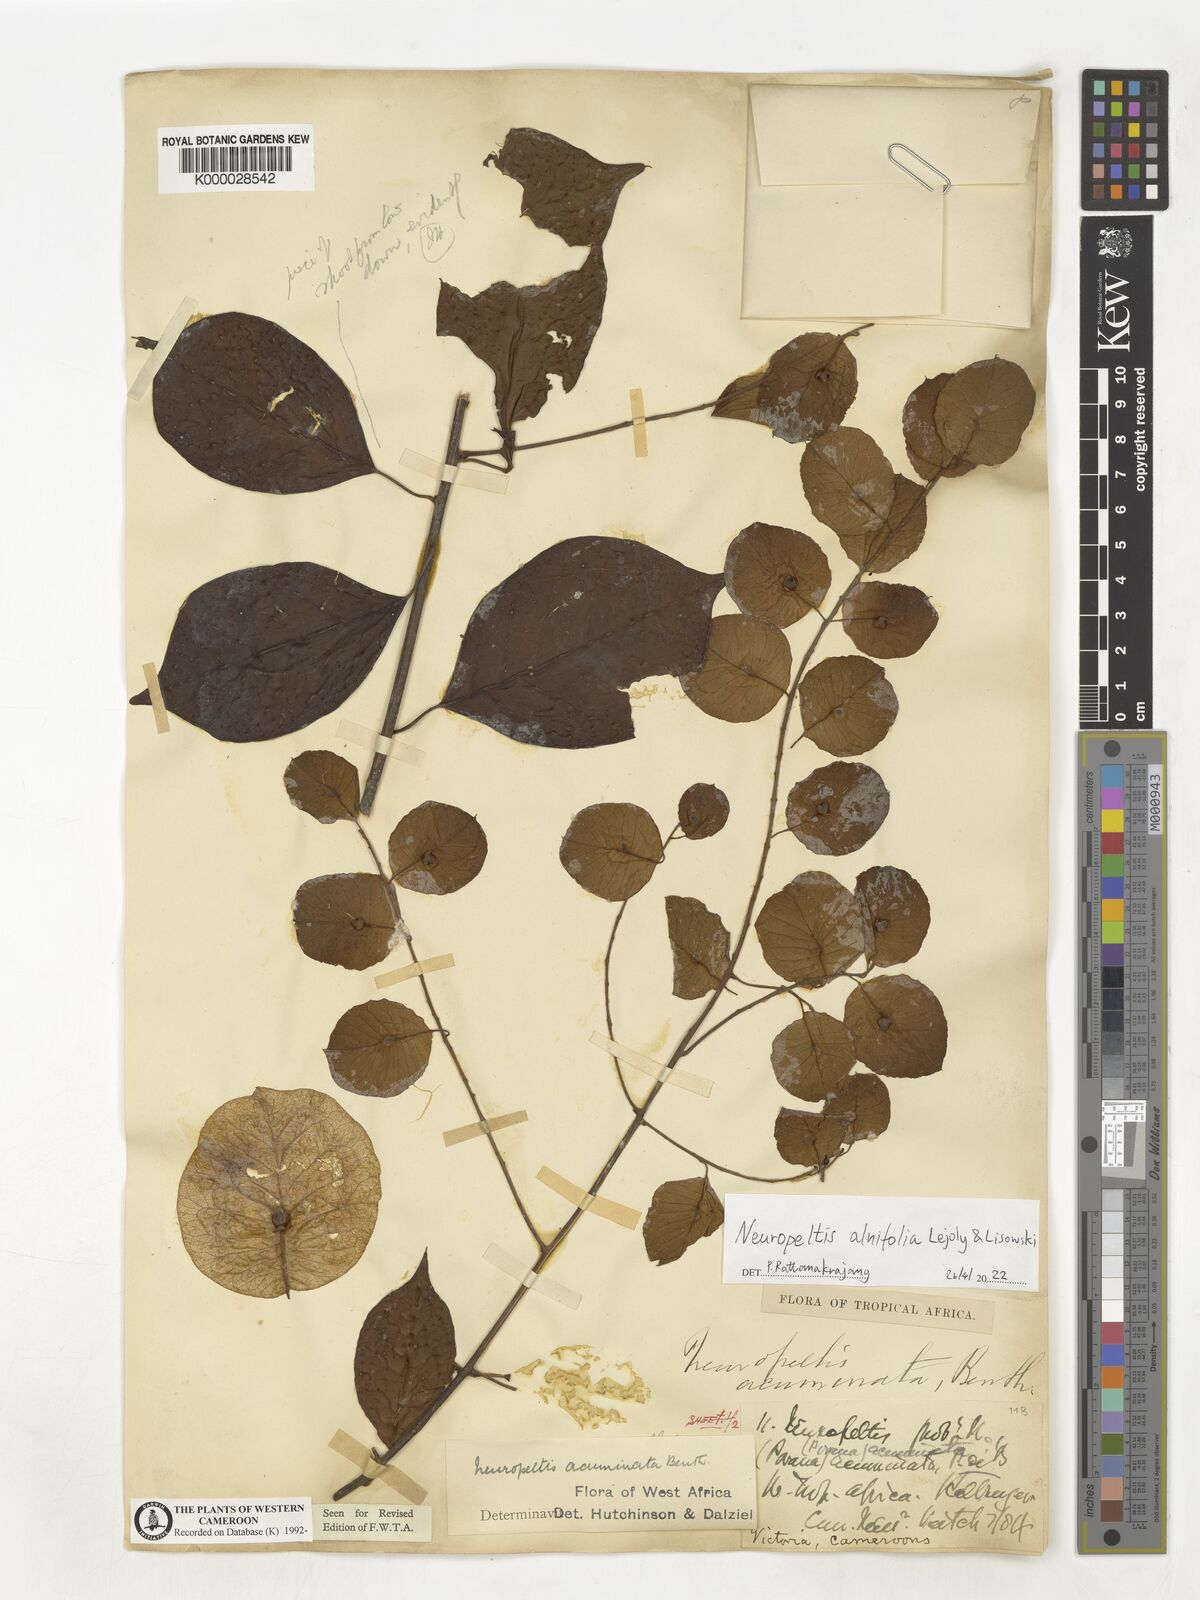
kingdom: Plantae
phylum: Tracheophyta
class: Magnoliopsida
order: Solanales
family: Convolvulaceae
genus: Neuropeltis
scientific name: Neuropeltis alnifolia
